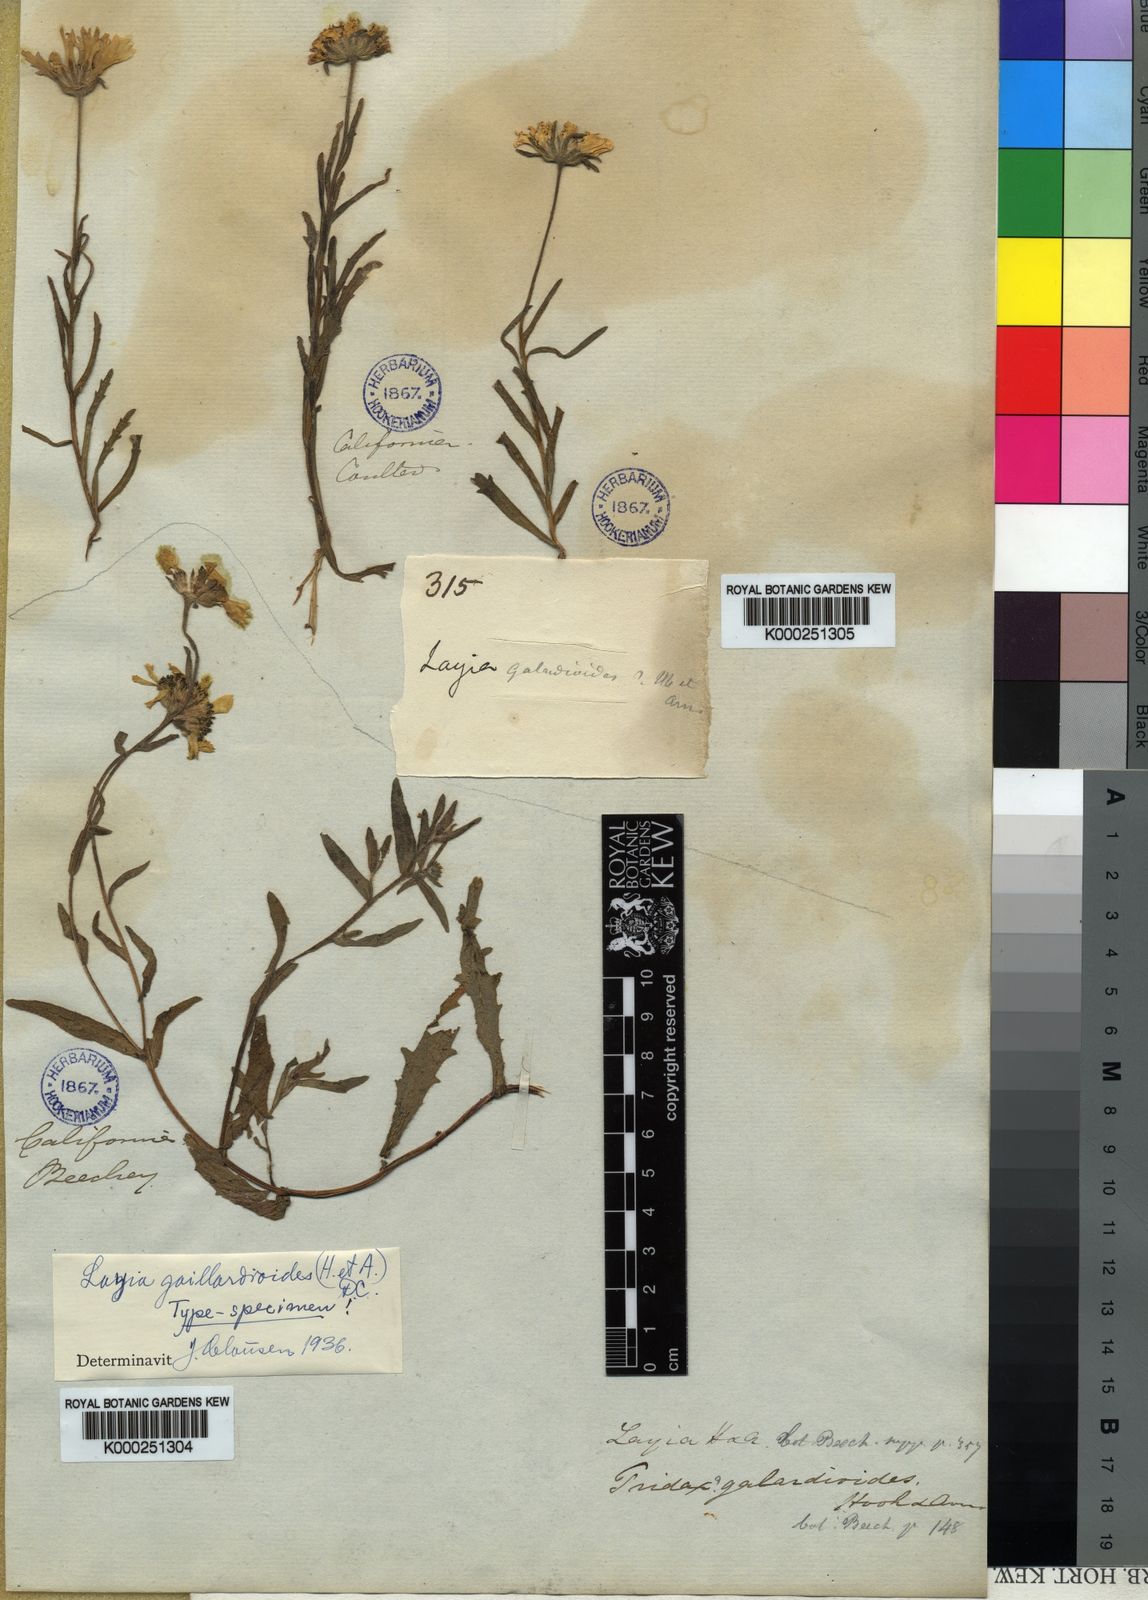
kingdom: Plantae
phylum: Tracheophyta
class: Magnoliopsida
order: Asterales
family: Asteraceae
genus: Layia
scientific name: Layia
